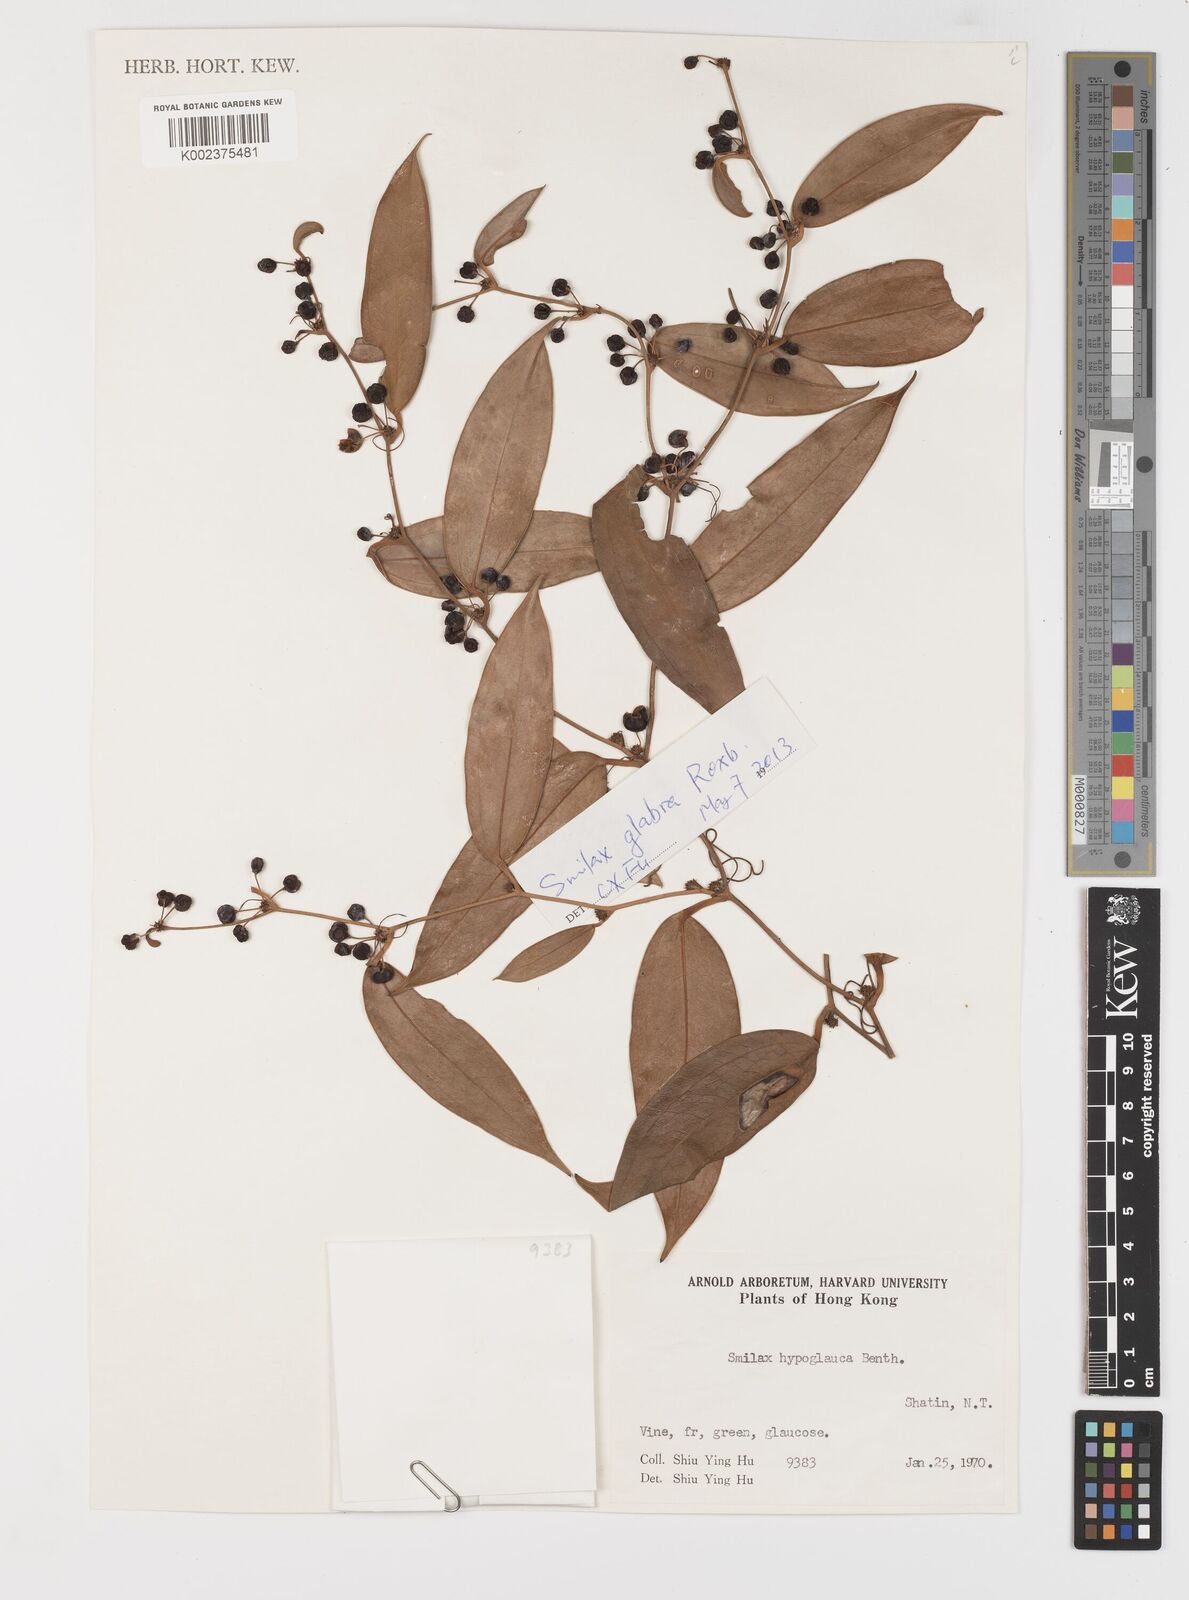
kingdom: Plantae
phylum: Tracheophyta
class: Liliopsida
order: Liliales
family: Smilacaceae
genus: Smilax
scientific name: Smilax glabra
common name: Chinese smilax
